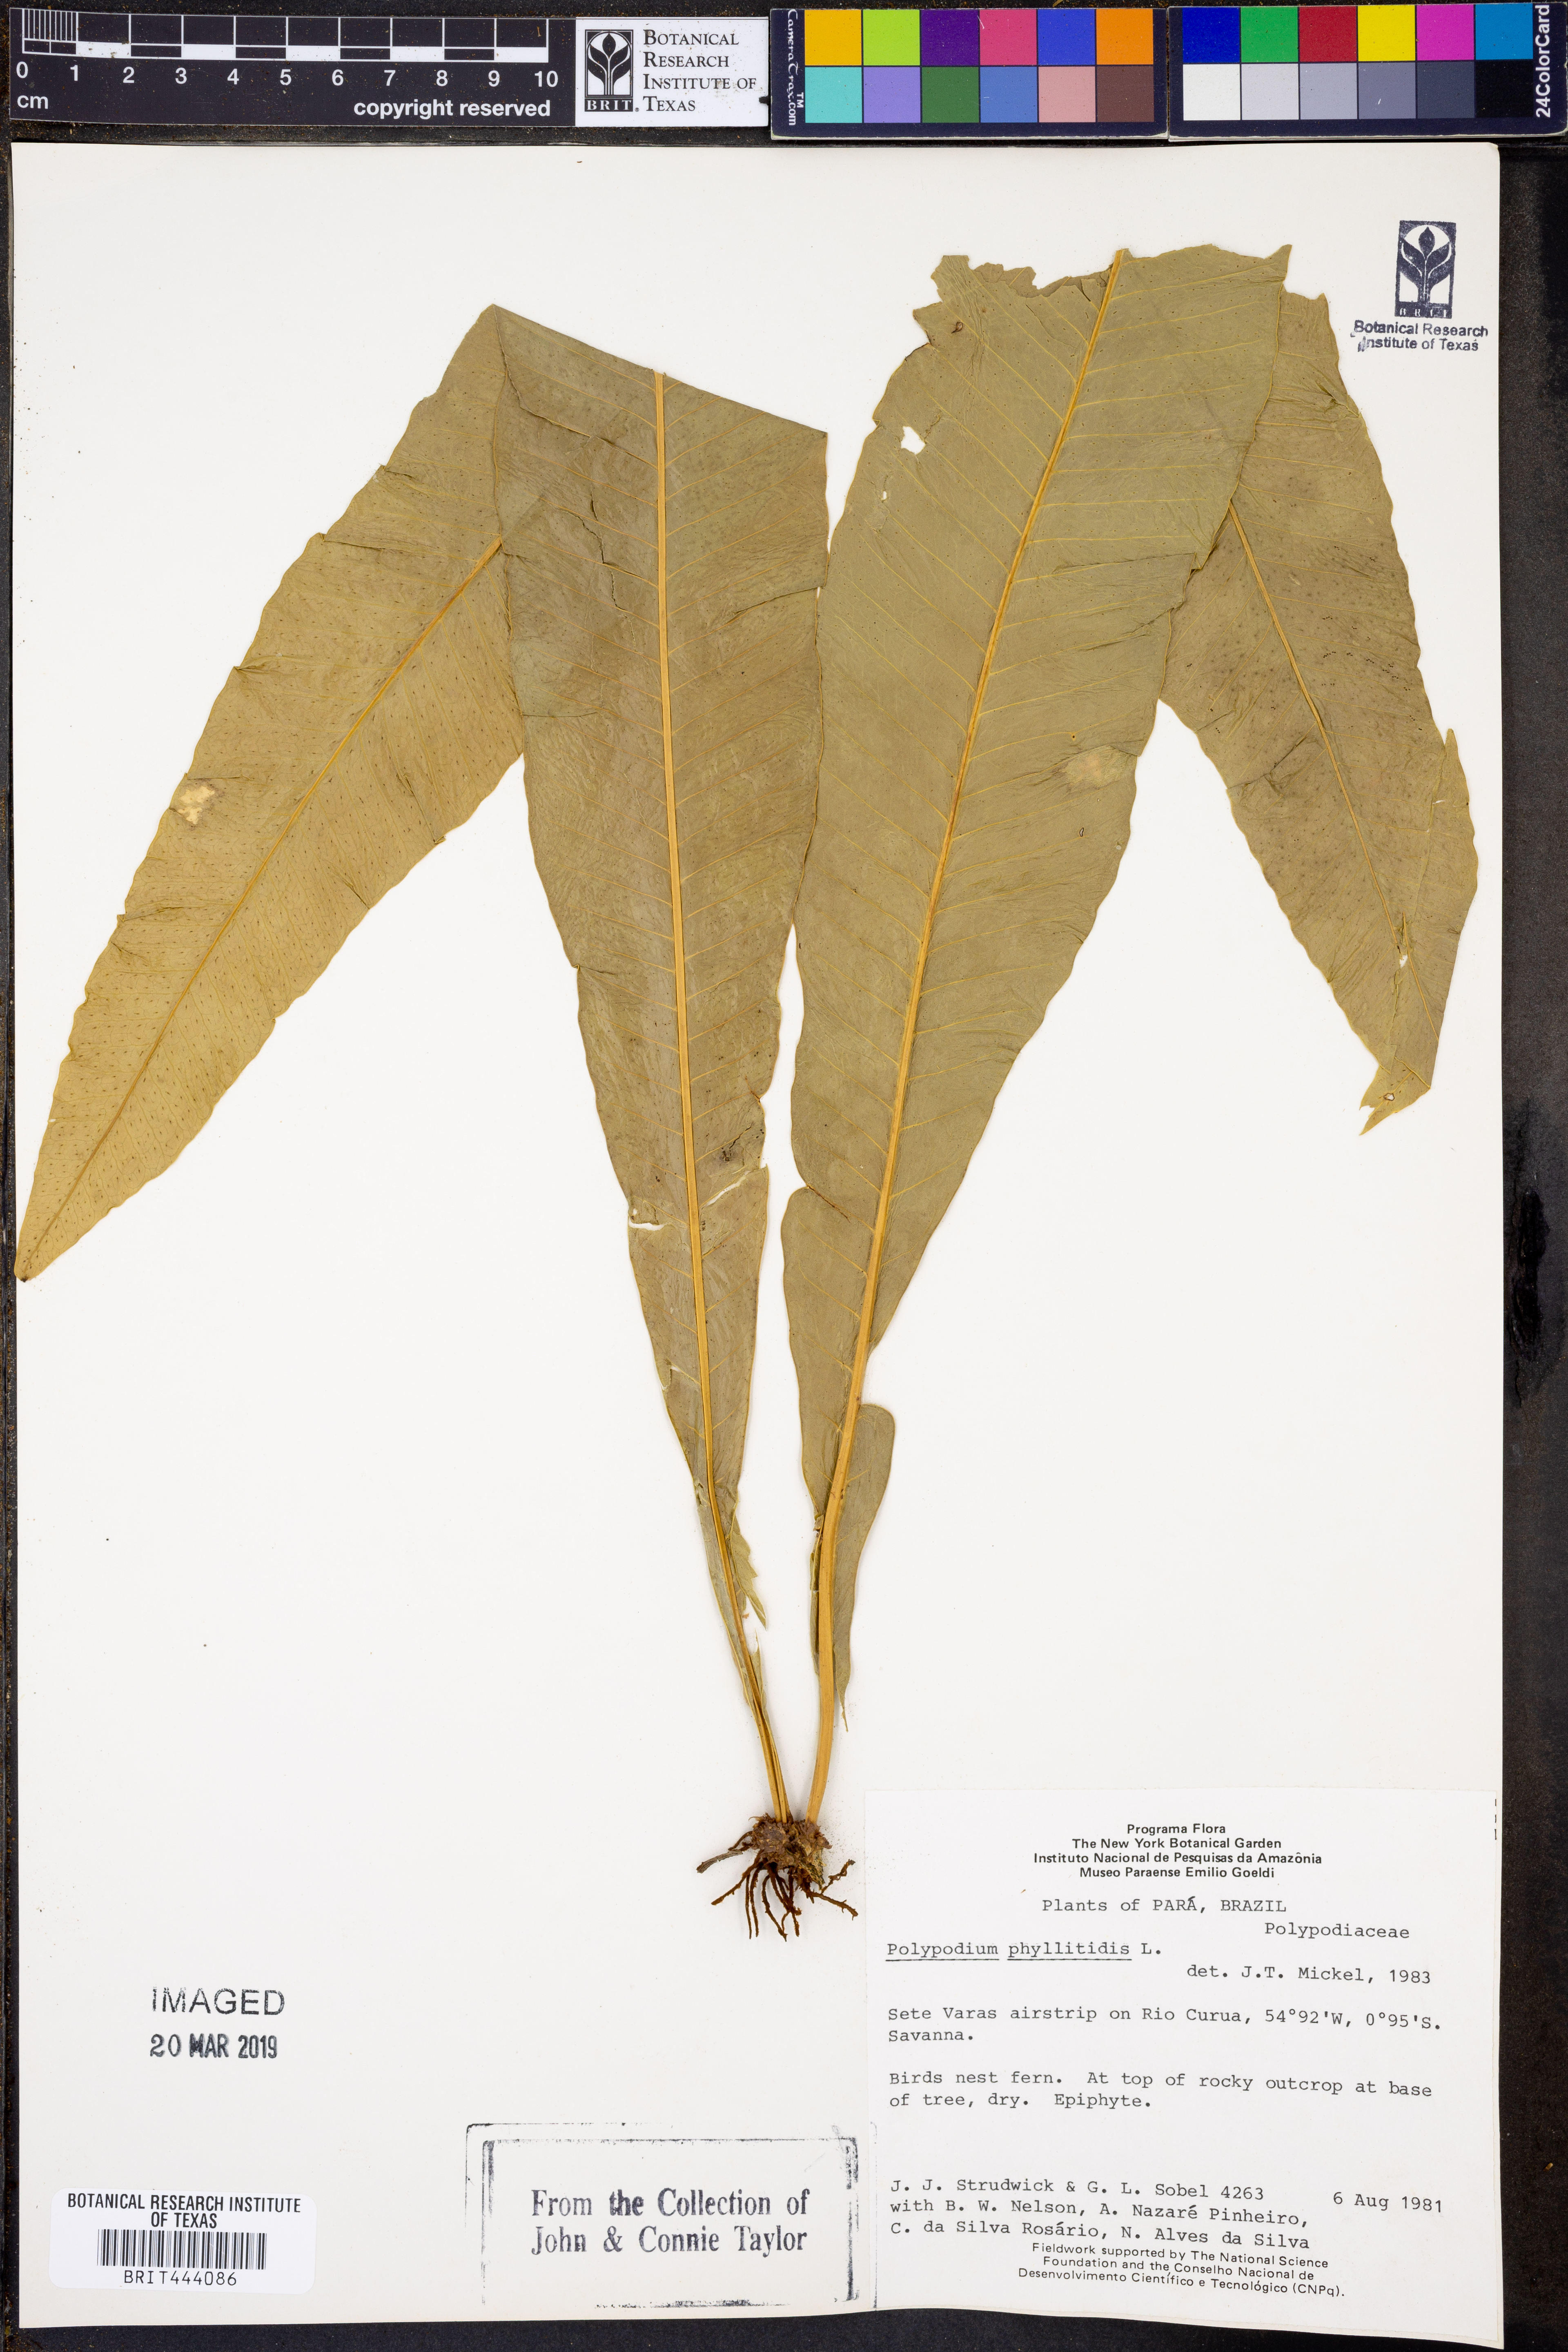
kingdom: Plantae
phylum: Tracheophyta
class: Polypodiopsida
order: Polypodiales
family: Polypodiaceae
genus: Campyloneurum
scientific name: Campyloneurum phyllitidis
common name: Cow-tongue fern
